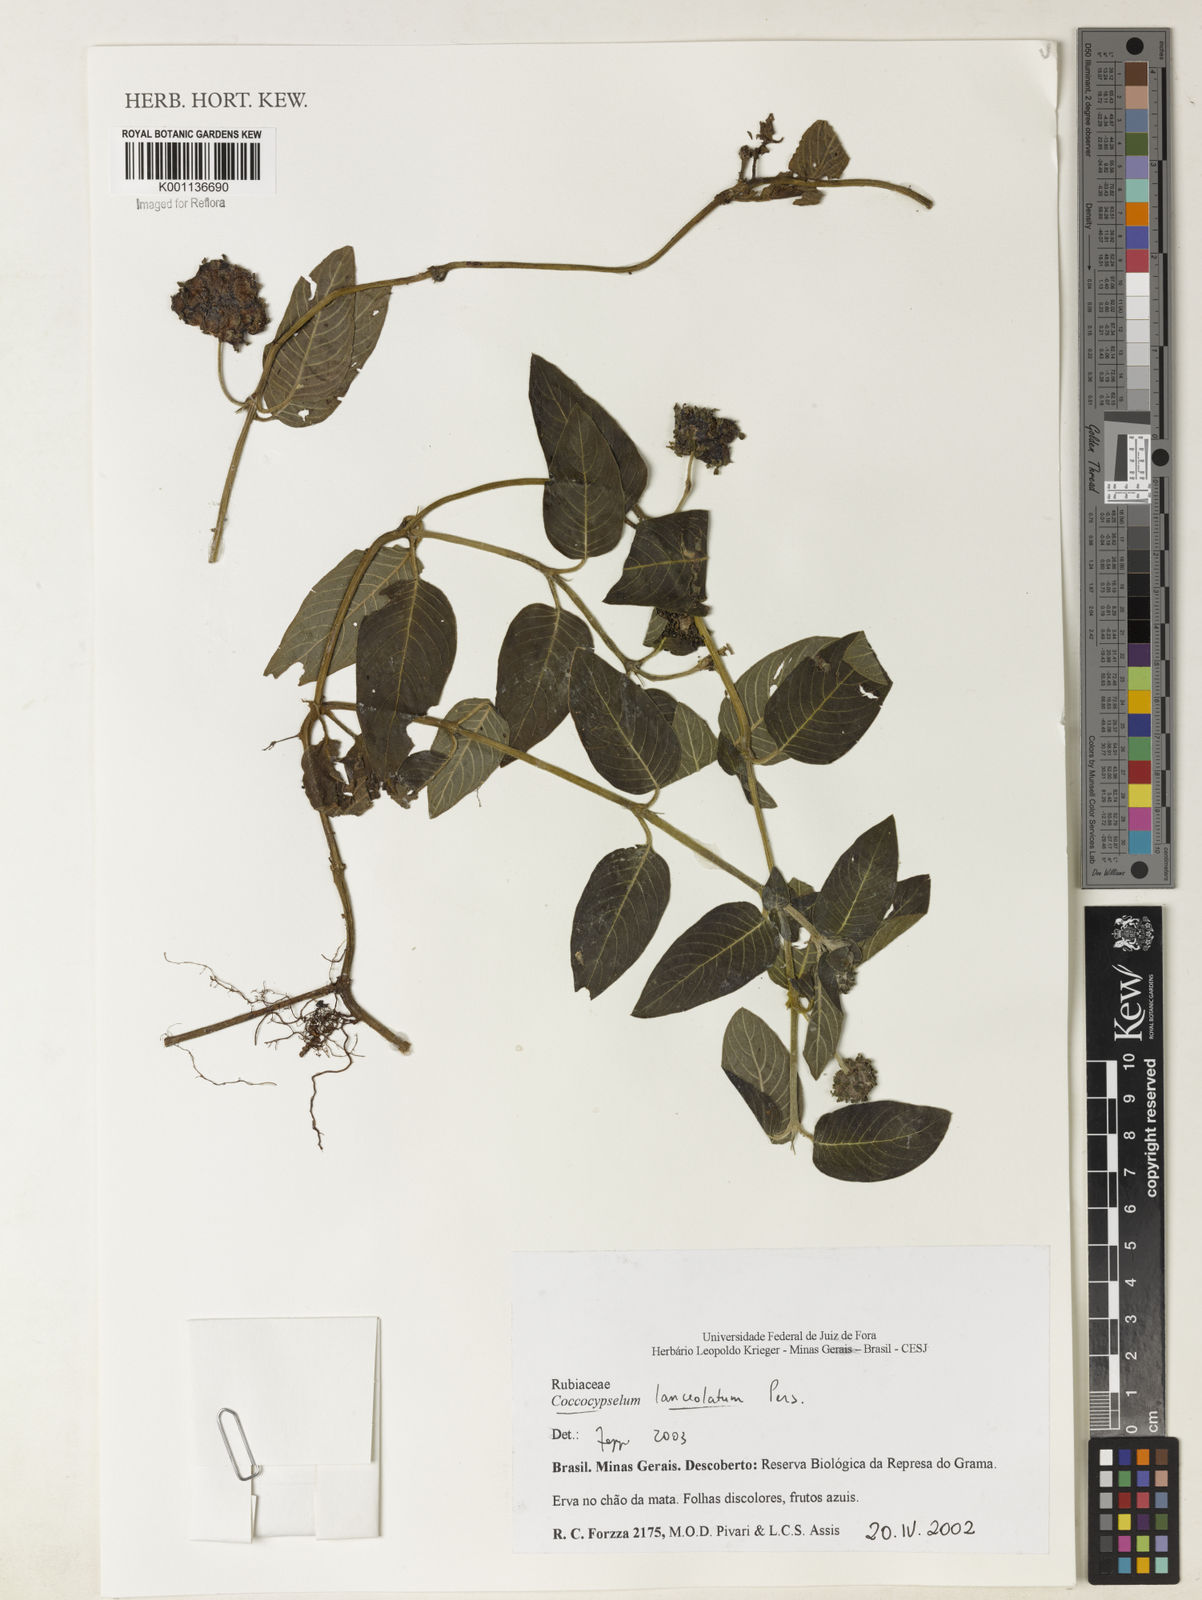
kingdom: Plantae
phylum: Tracheophyta
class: Magnoliopsida
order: Gentianales
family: Rubiaceae
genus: Coccocypselum
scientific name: Coccocypselum lanceolatum
